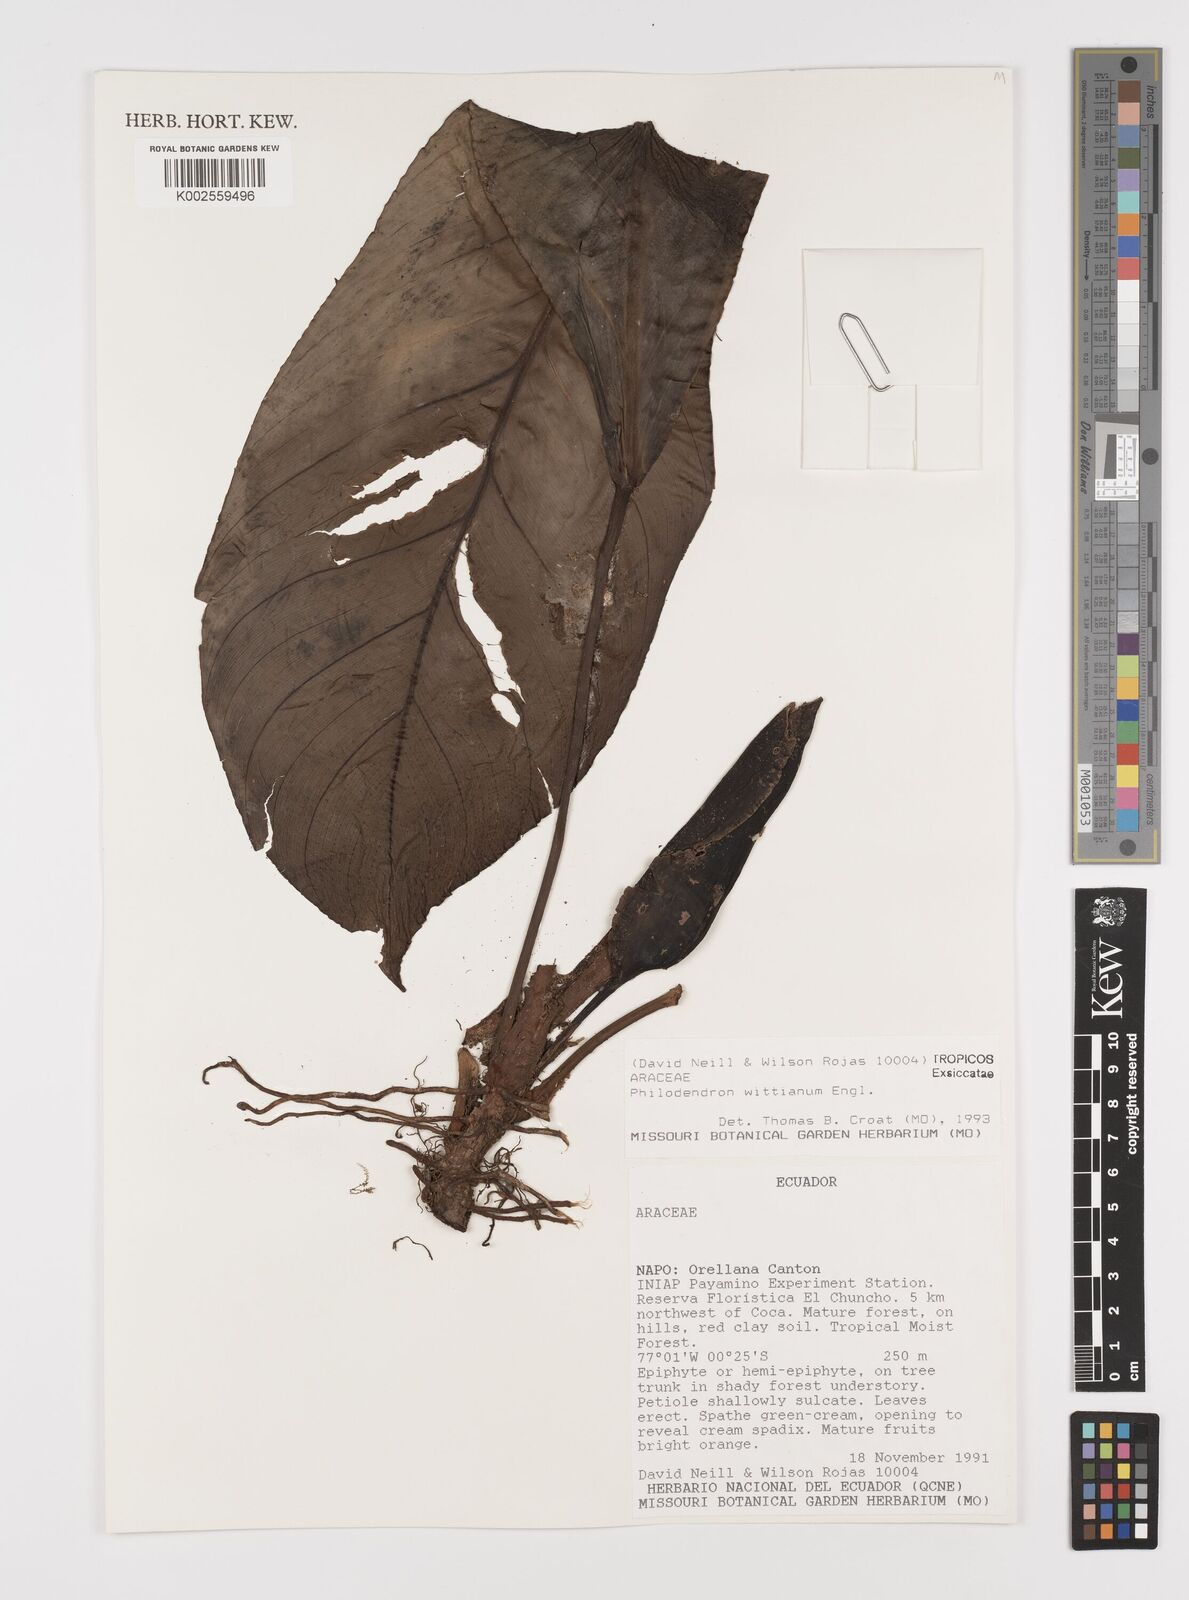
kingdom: Plantae
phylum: Tracheophyta
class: Liliopsida
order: Alismatales
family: Araceae
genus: Philodendron
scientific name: Philodendron wittianum
